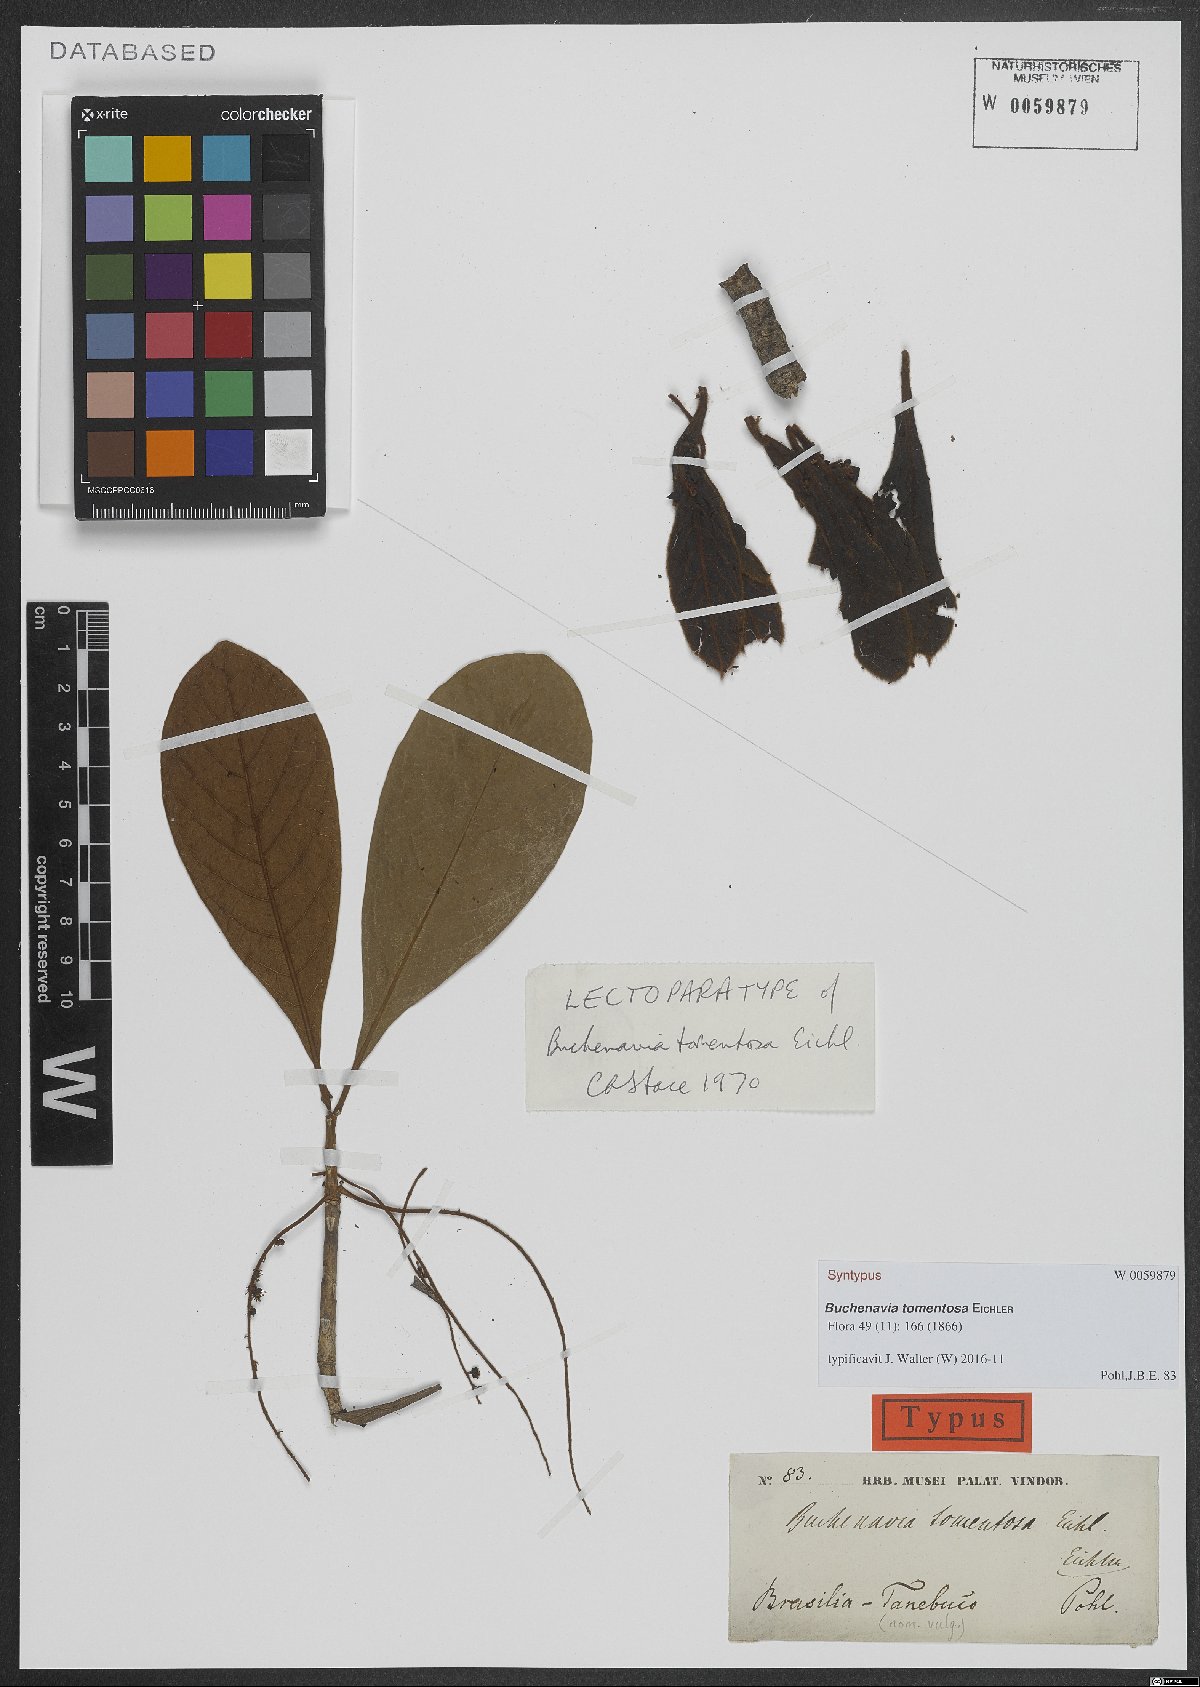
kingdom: Plantae
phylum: Tracheophyta
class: Magnoliopsida
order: Myrtales
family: Combretaceae
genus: Terminalia
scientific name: Terminalia corrugata
